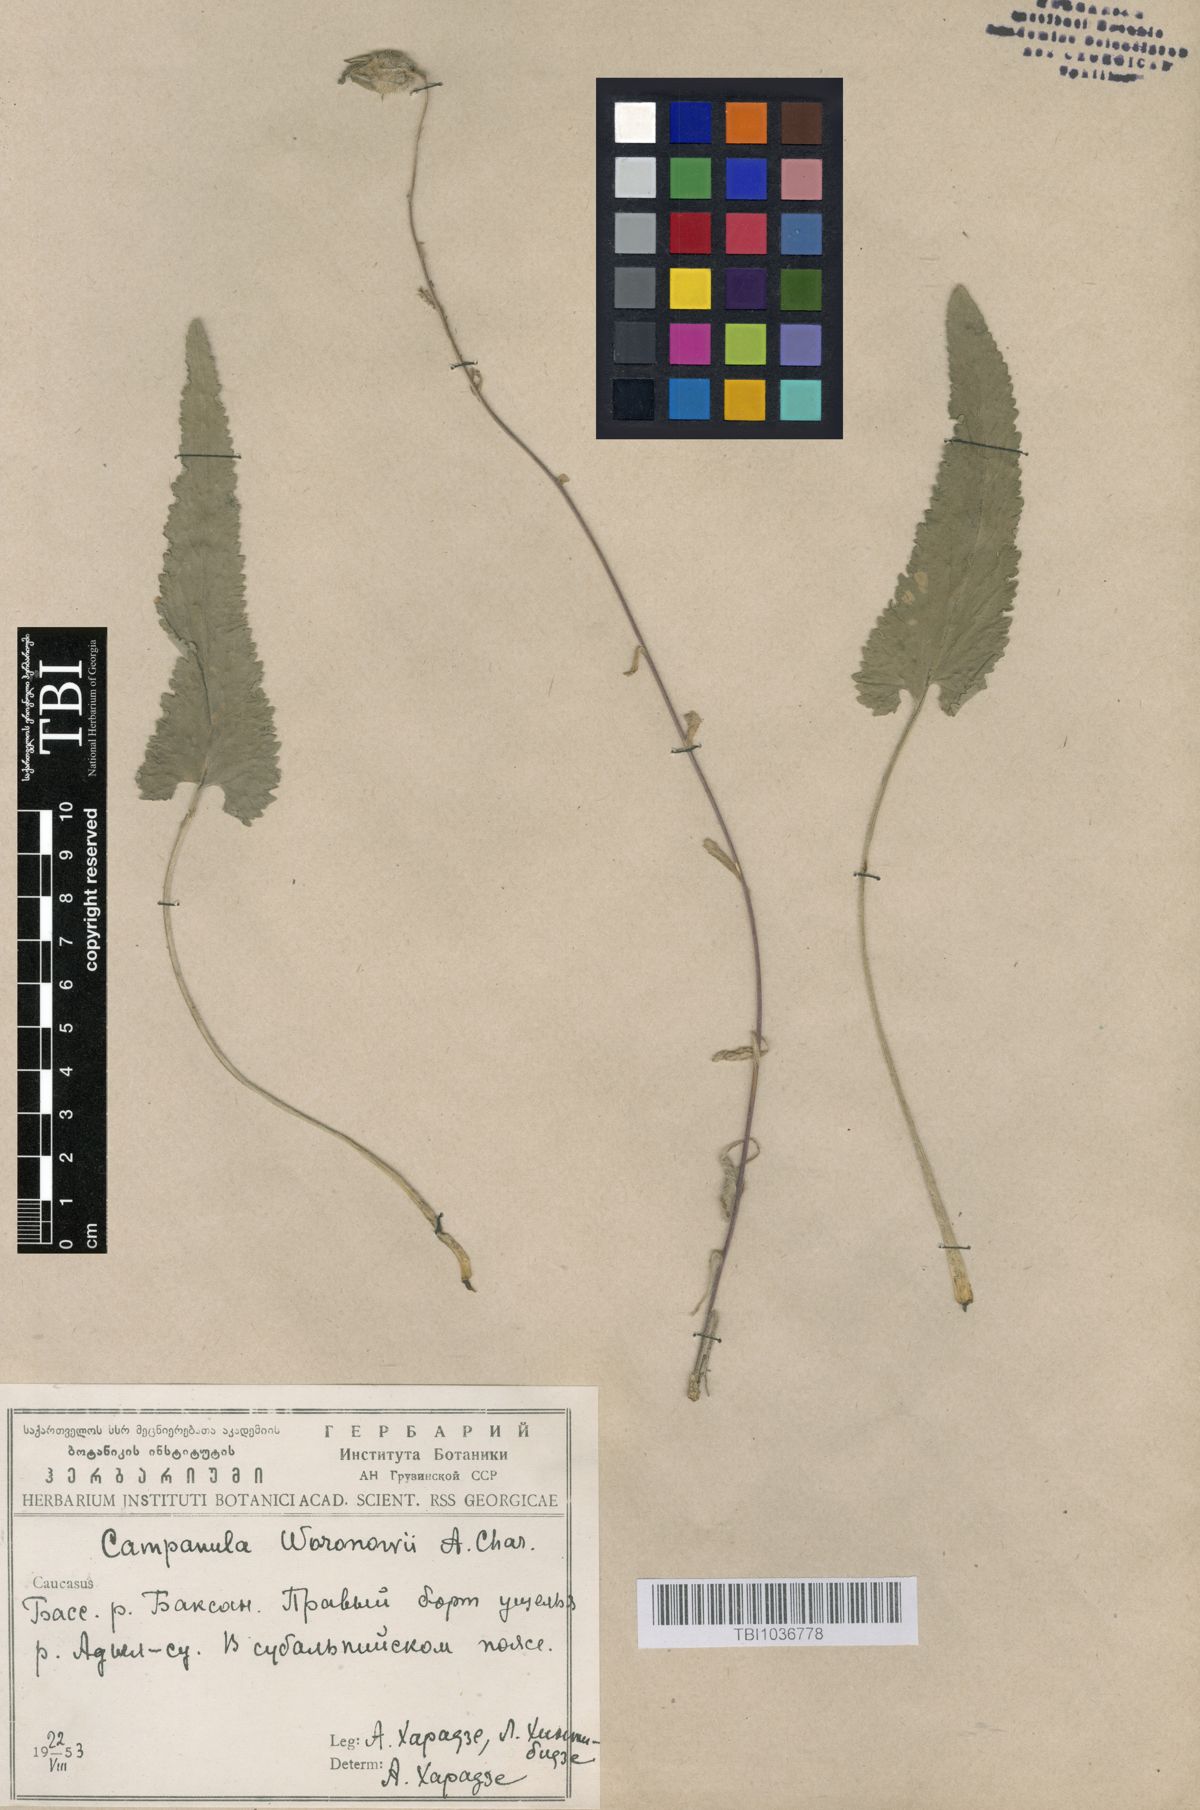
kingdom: Plantae
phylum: Tracheophyta
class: Magnoliopsida
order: Asterales
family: Campanulaceae
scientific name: Campanulaceae
